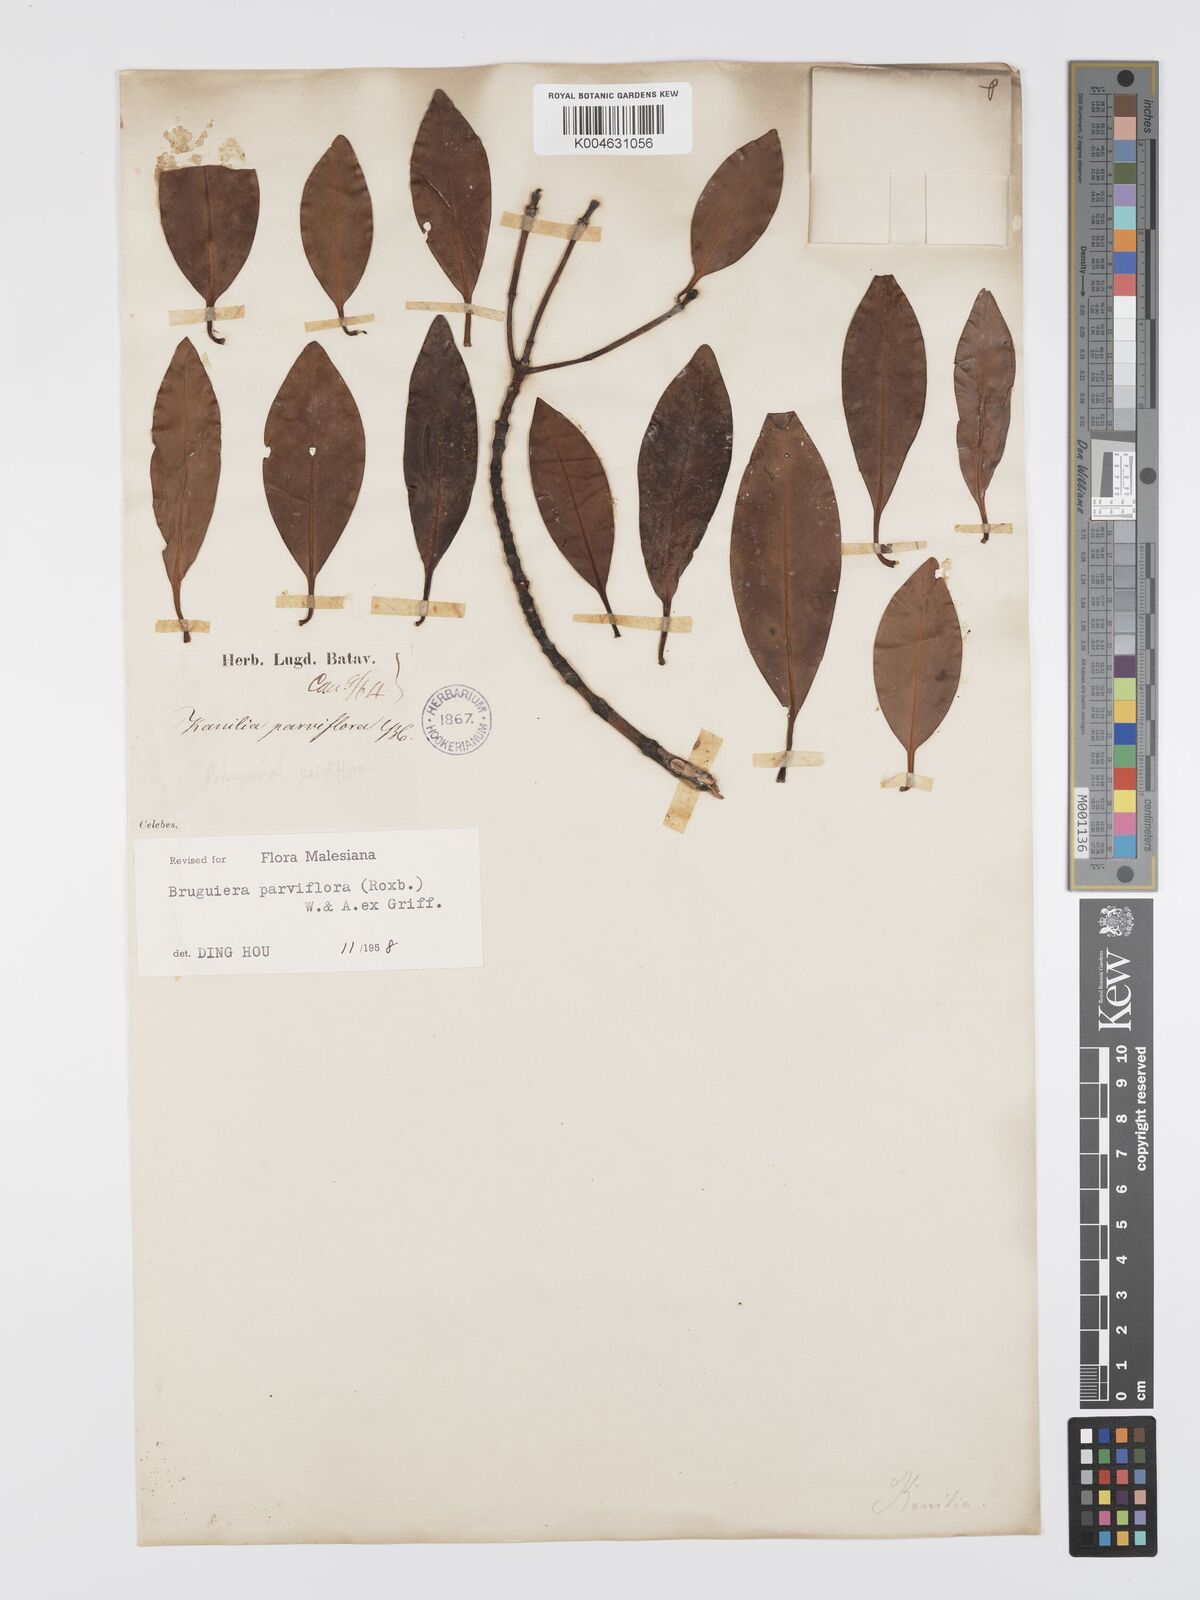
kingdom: Plantae
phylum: Tracheophyta
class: Magnoliopsida
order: Malpighiales
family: Rhizophoraceae
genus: Bruguiera
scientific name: Bruguiera parviflora
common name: Smallflower bruguiera
